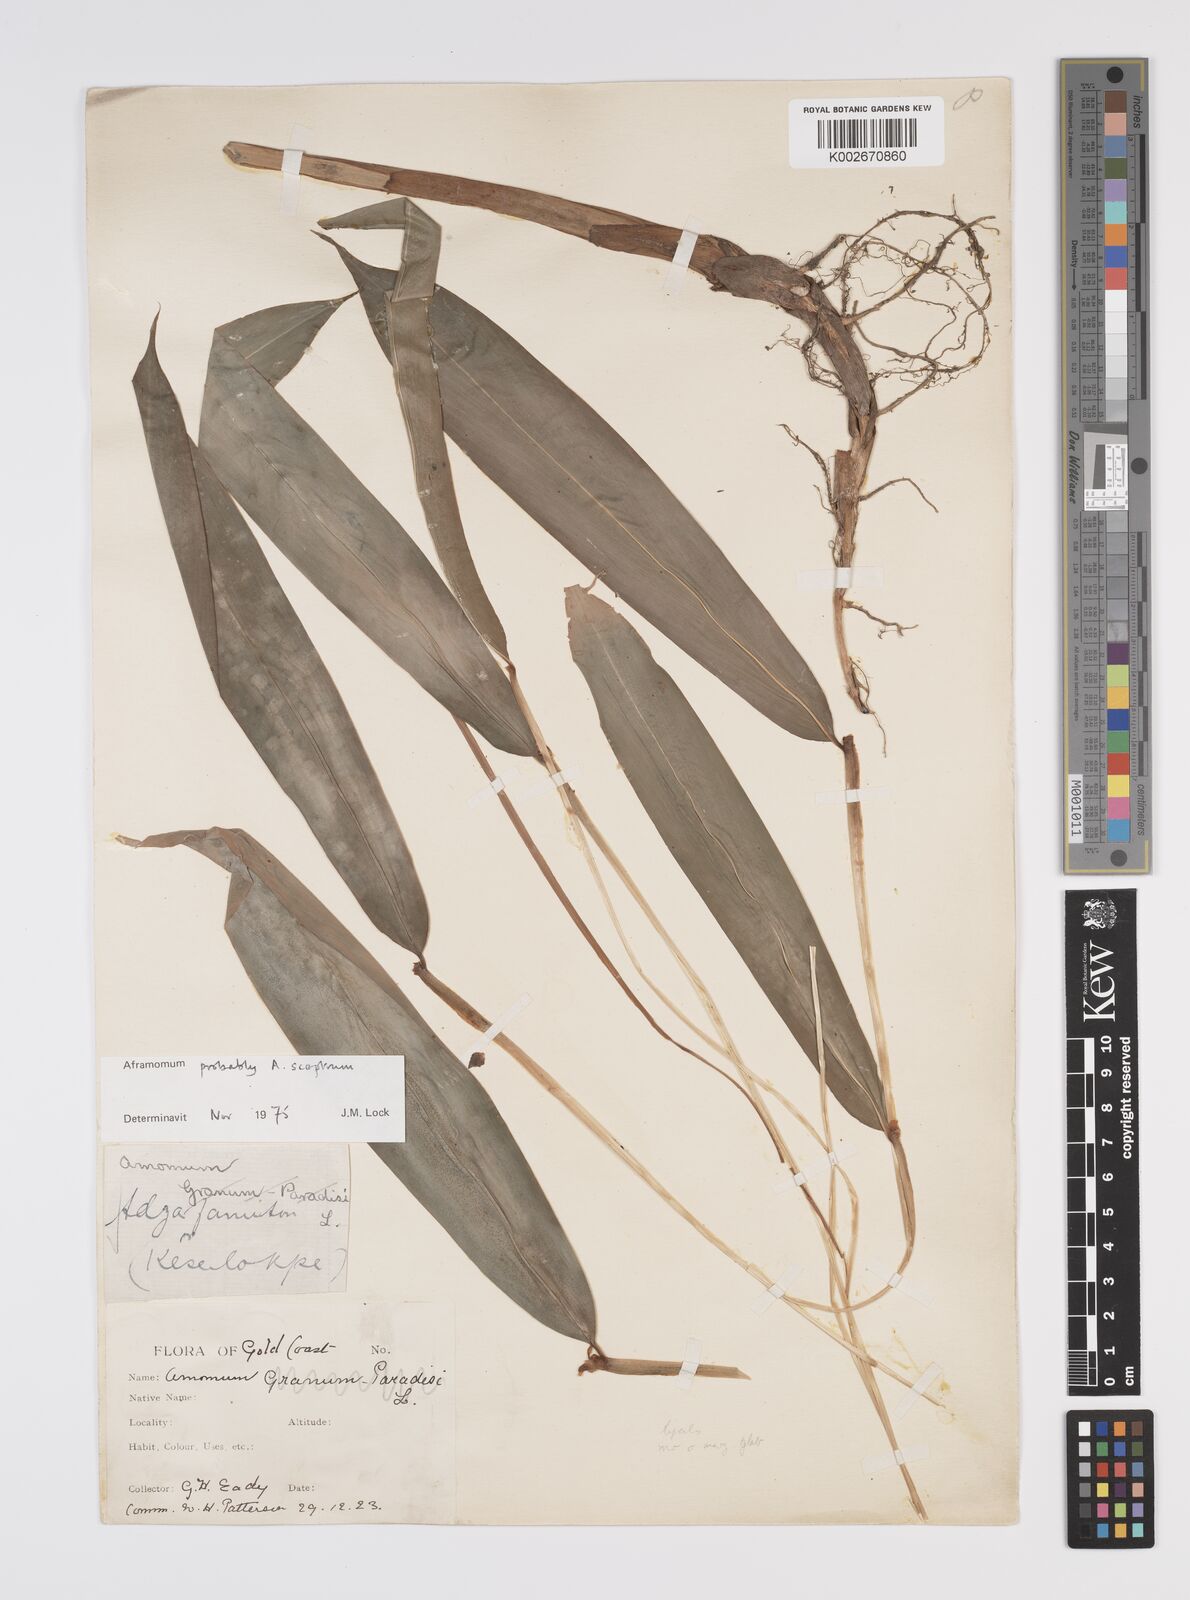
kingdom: Plantae
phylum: Tracheophyta
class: Liliopsida
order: Zingiberales
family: Zingiberaceae
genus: Aframomum
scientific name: Aframomum cereum
